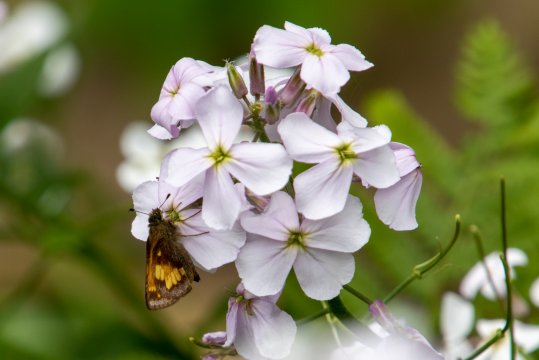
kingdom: Animalia
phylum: Arthropoda
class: Insecta
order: Lepidoptera
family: Hesperiidae
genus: Lon
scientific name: Lon hobomok
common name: Hobomok Skipper
